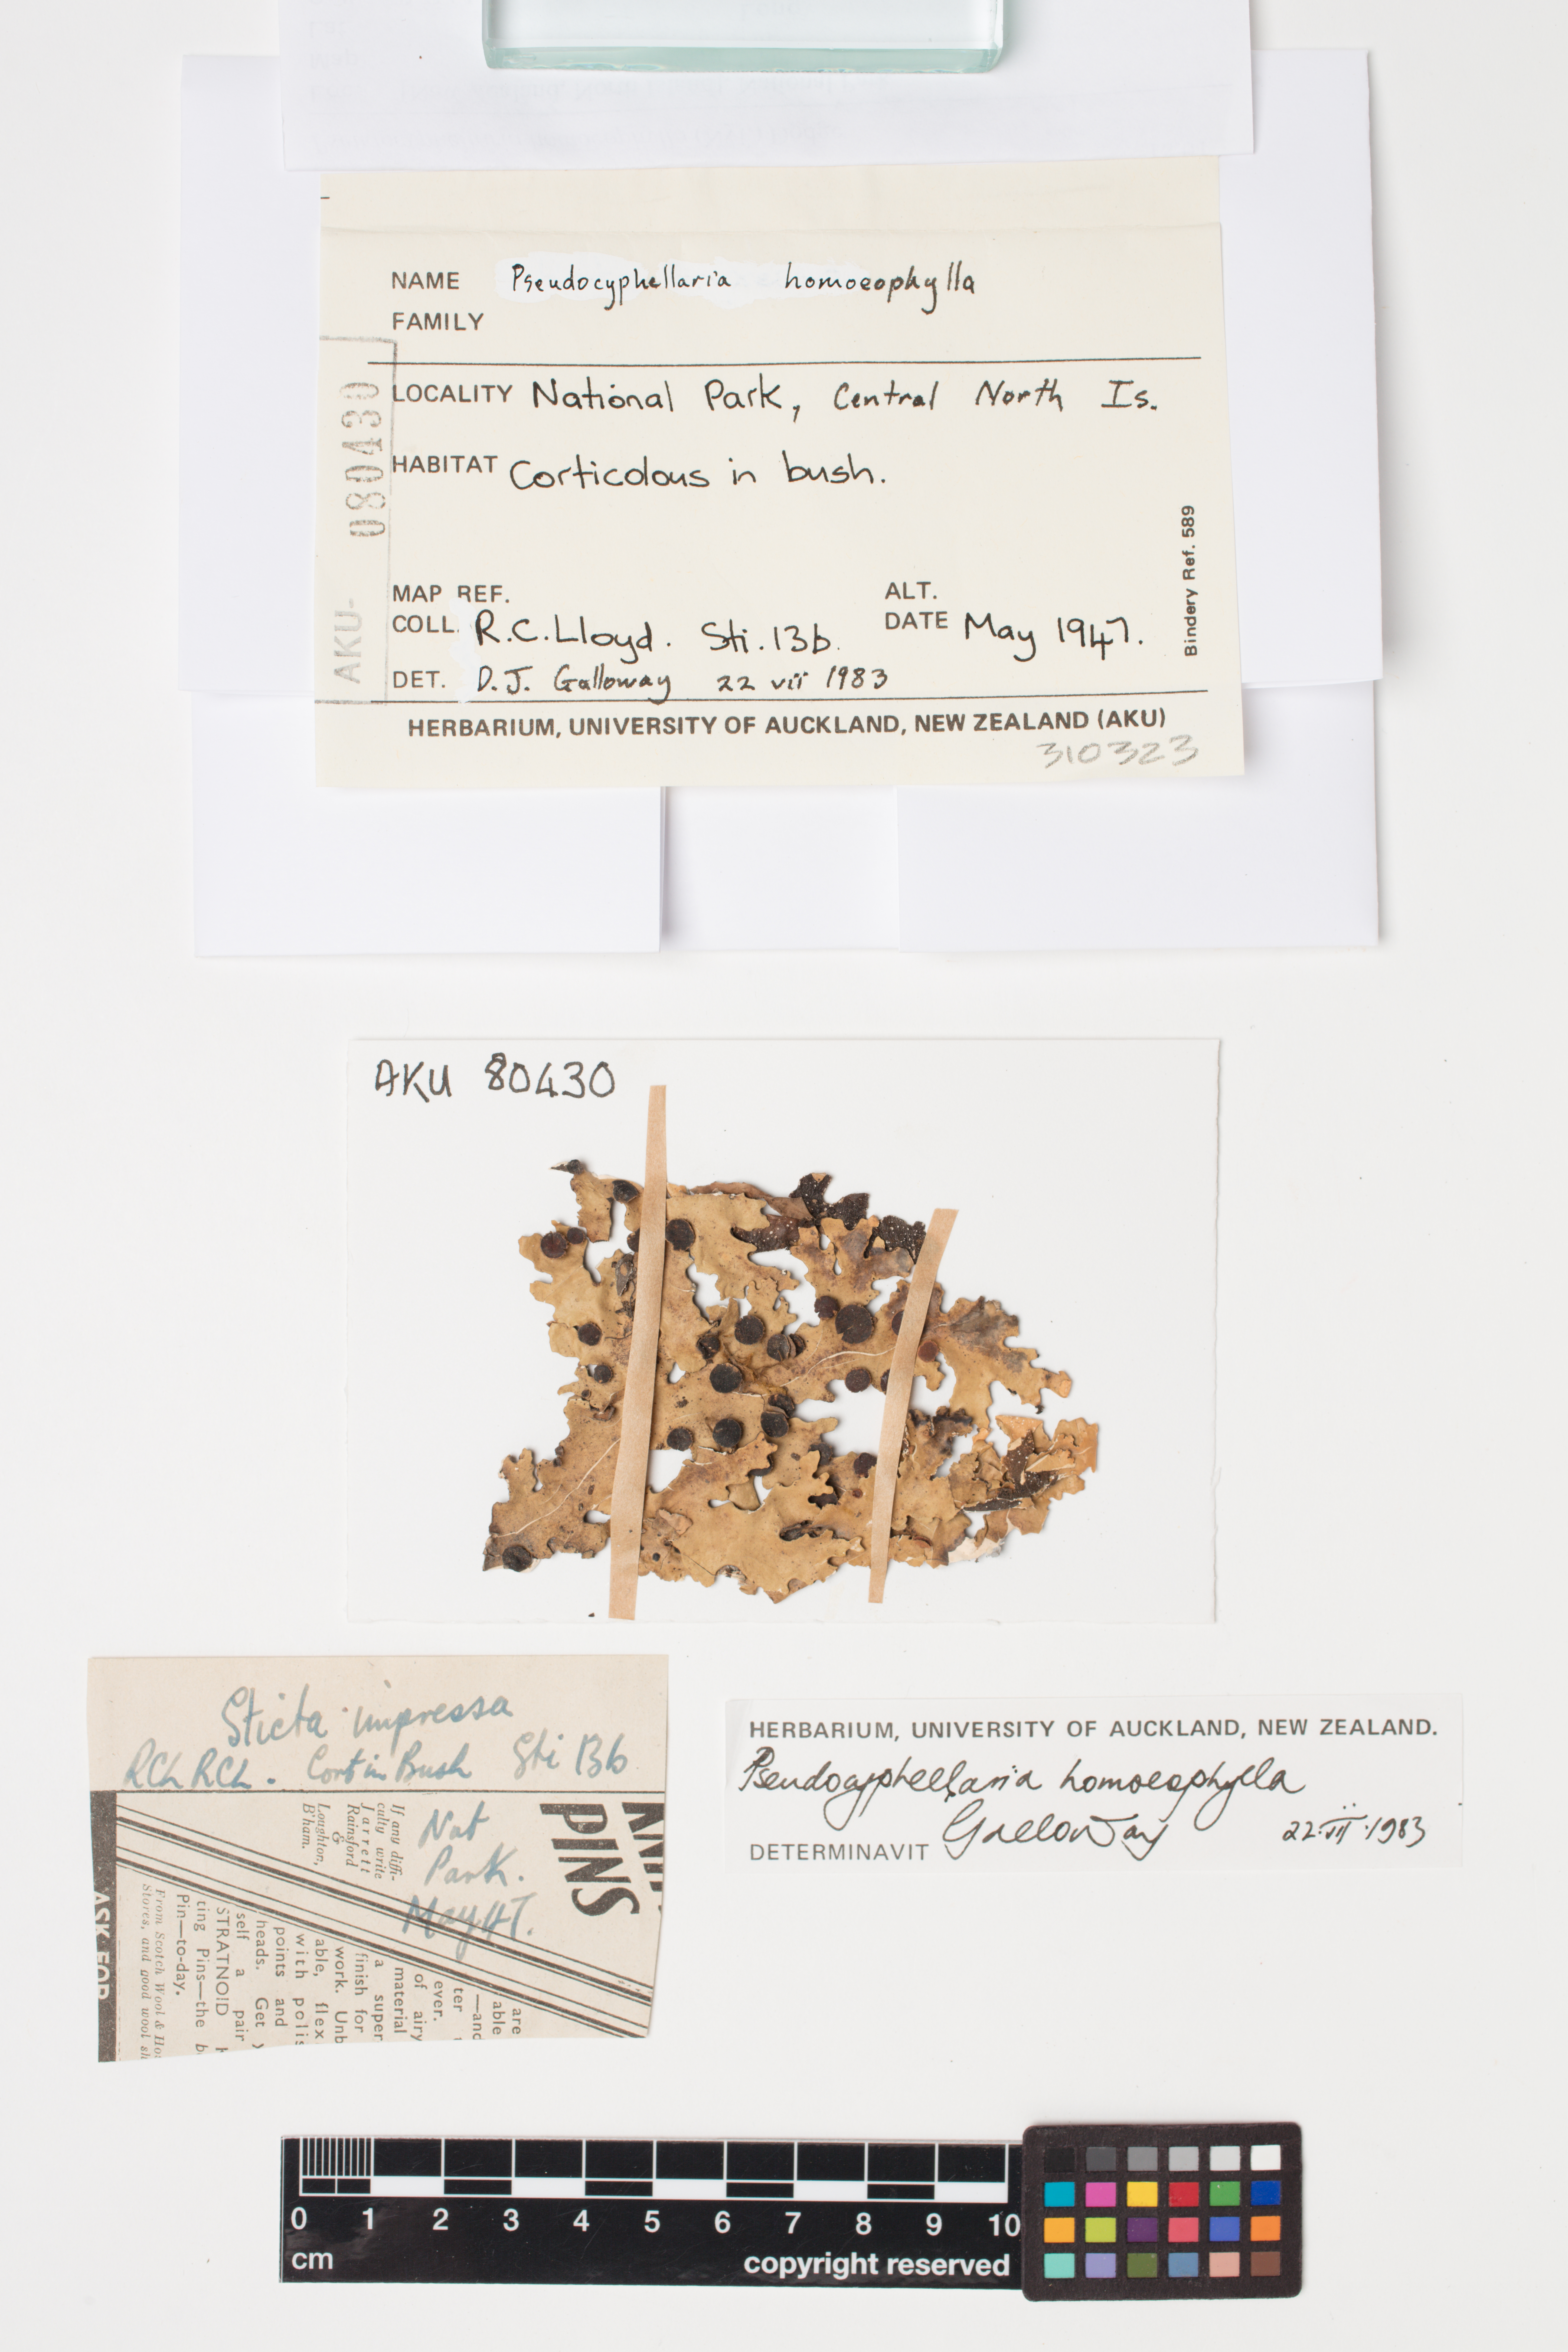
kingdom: Fungi
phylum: Ascomycota
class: Lecanoromycetes
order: Peltigerales
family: Lobariaceae
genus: Pseudocyphellaria
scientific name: Pseudocyphellaria homeophylla
